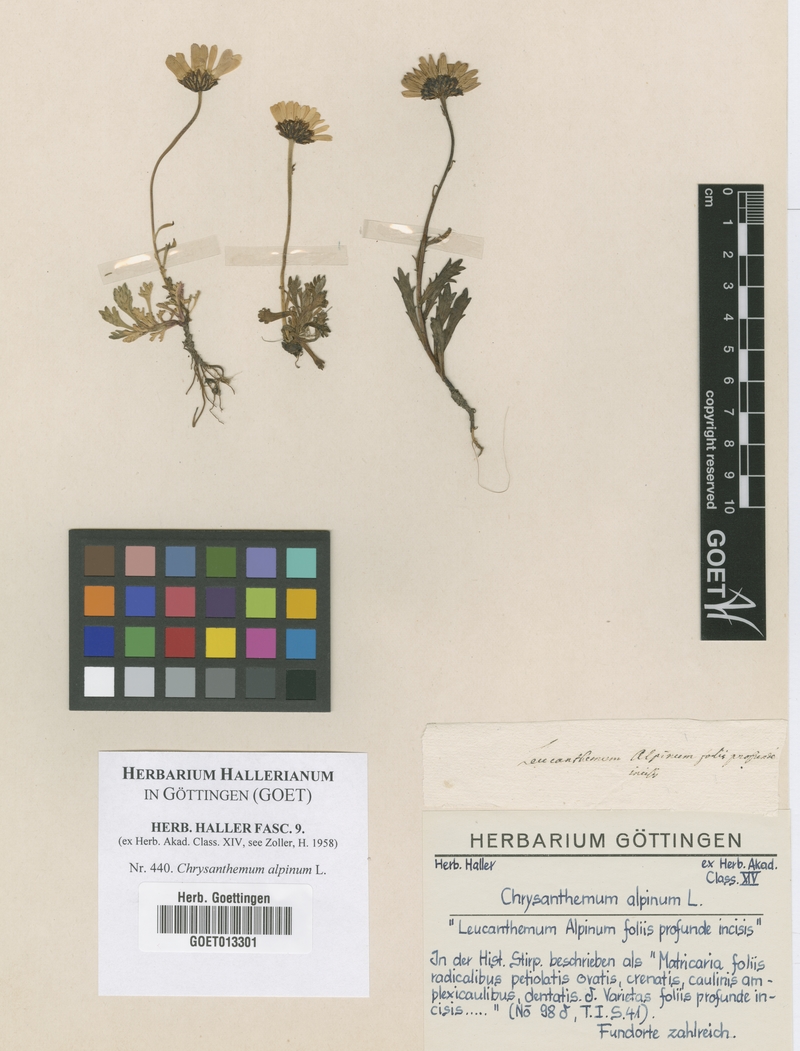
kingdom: Plantae
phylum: Tracheophyta
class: Magnoliopsida
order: Asterales
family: Asteraceae
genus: Leucanthemopsis
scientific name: Leucanthemopsis alpina
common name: Alpine moon daisy
